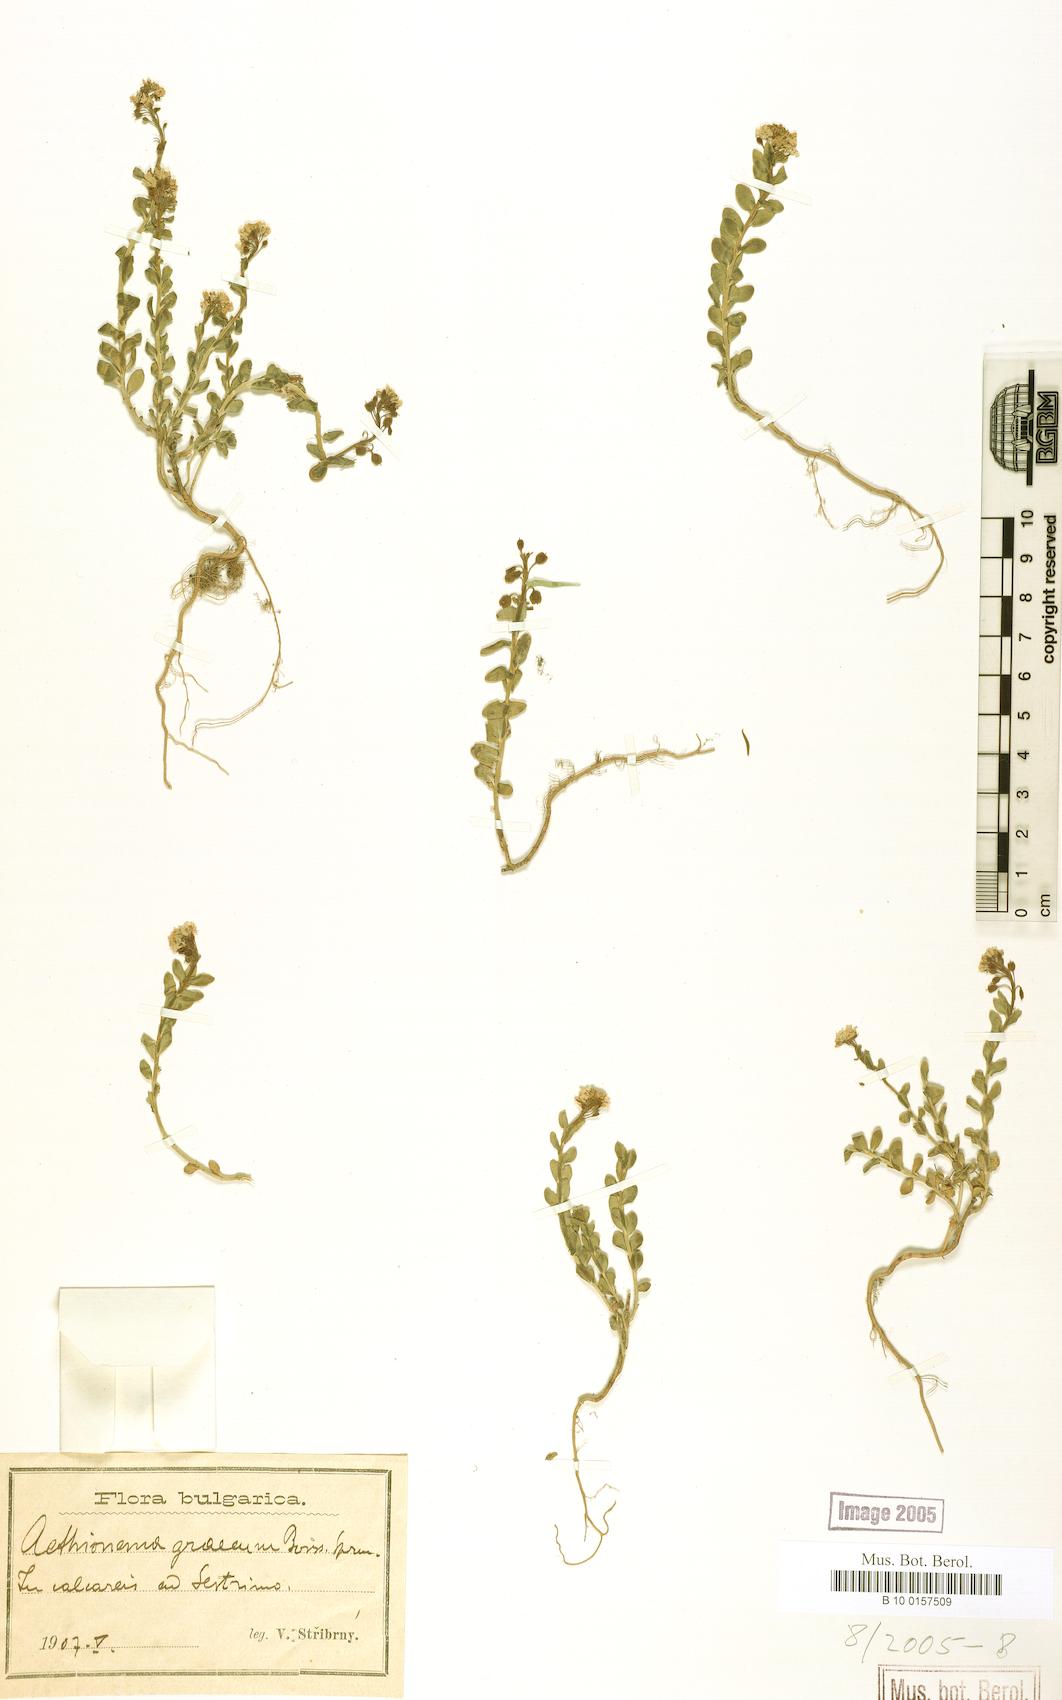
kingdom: Plantae
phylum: Tracheophyta
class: Magnoliopsida
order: Brassicales
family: Brassicaceae
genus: Aethionema
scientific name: Aethionema saxatile
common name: Burnt candytuft
